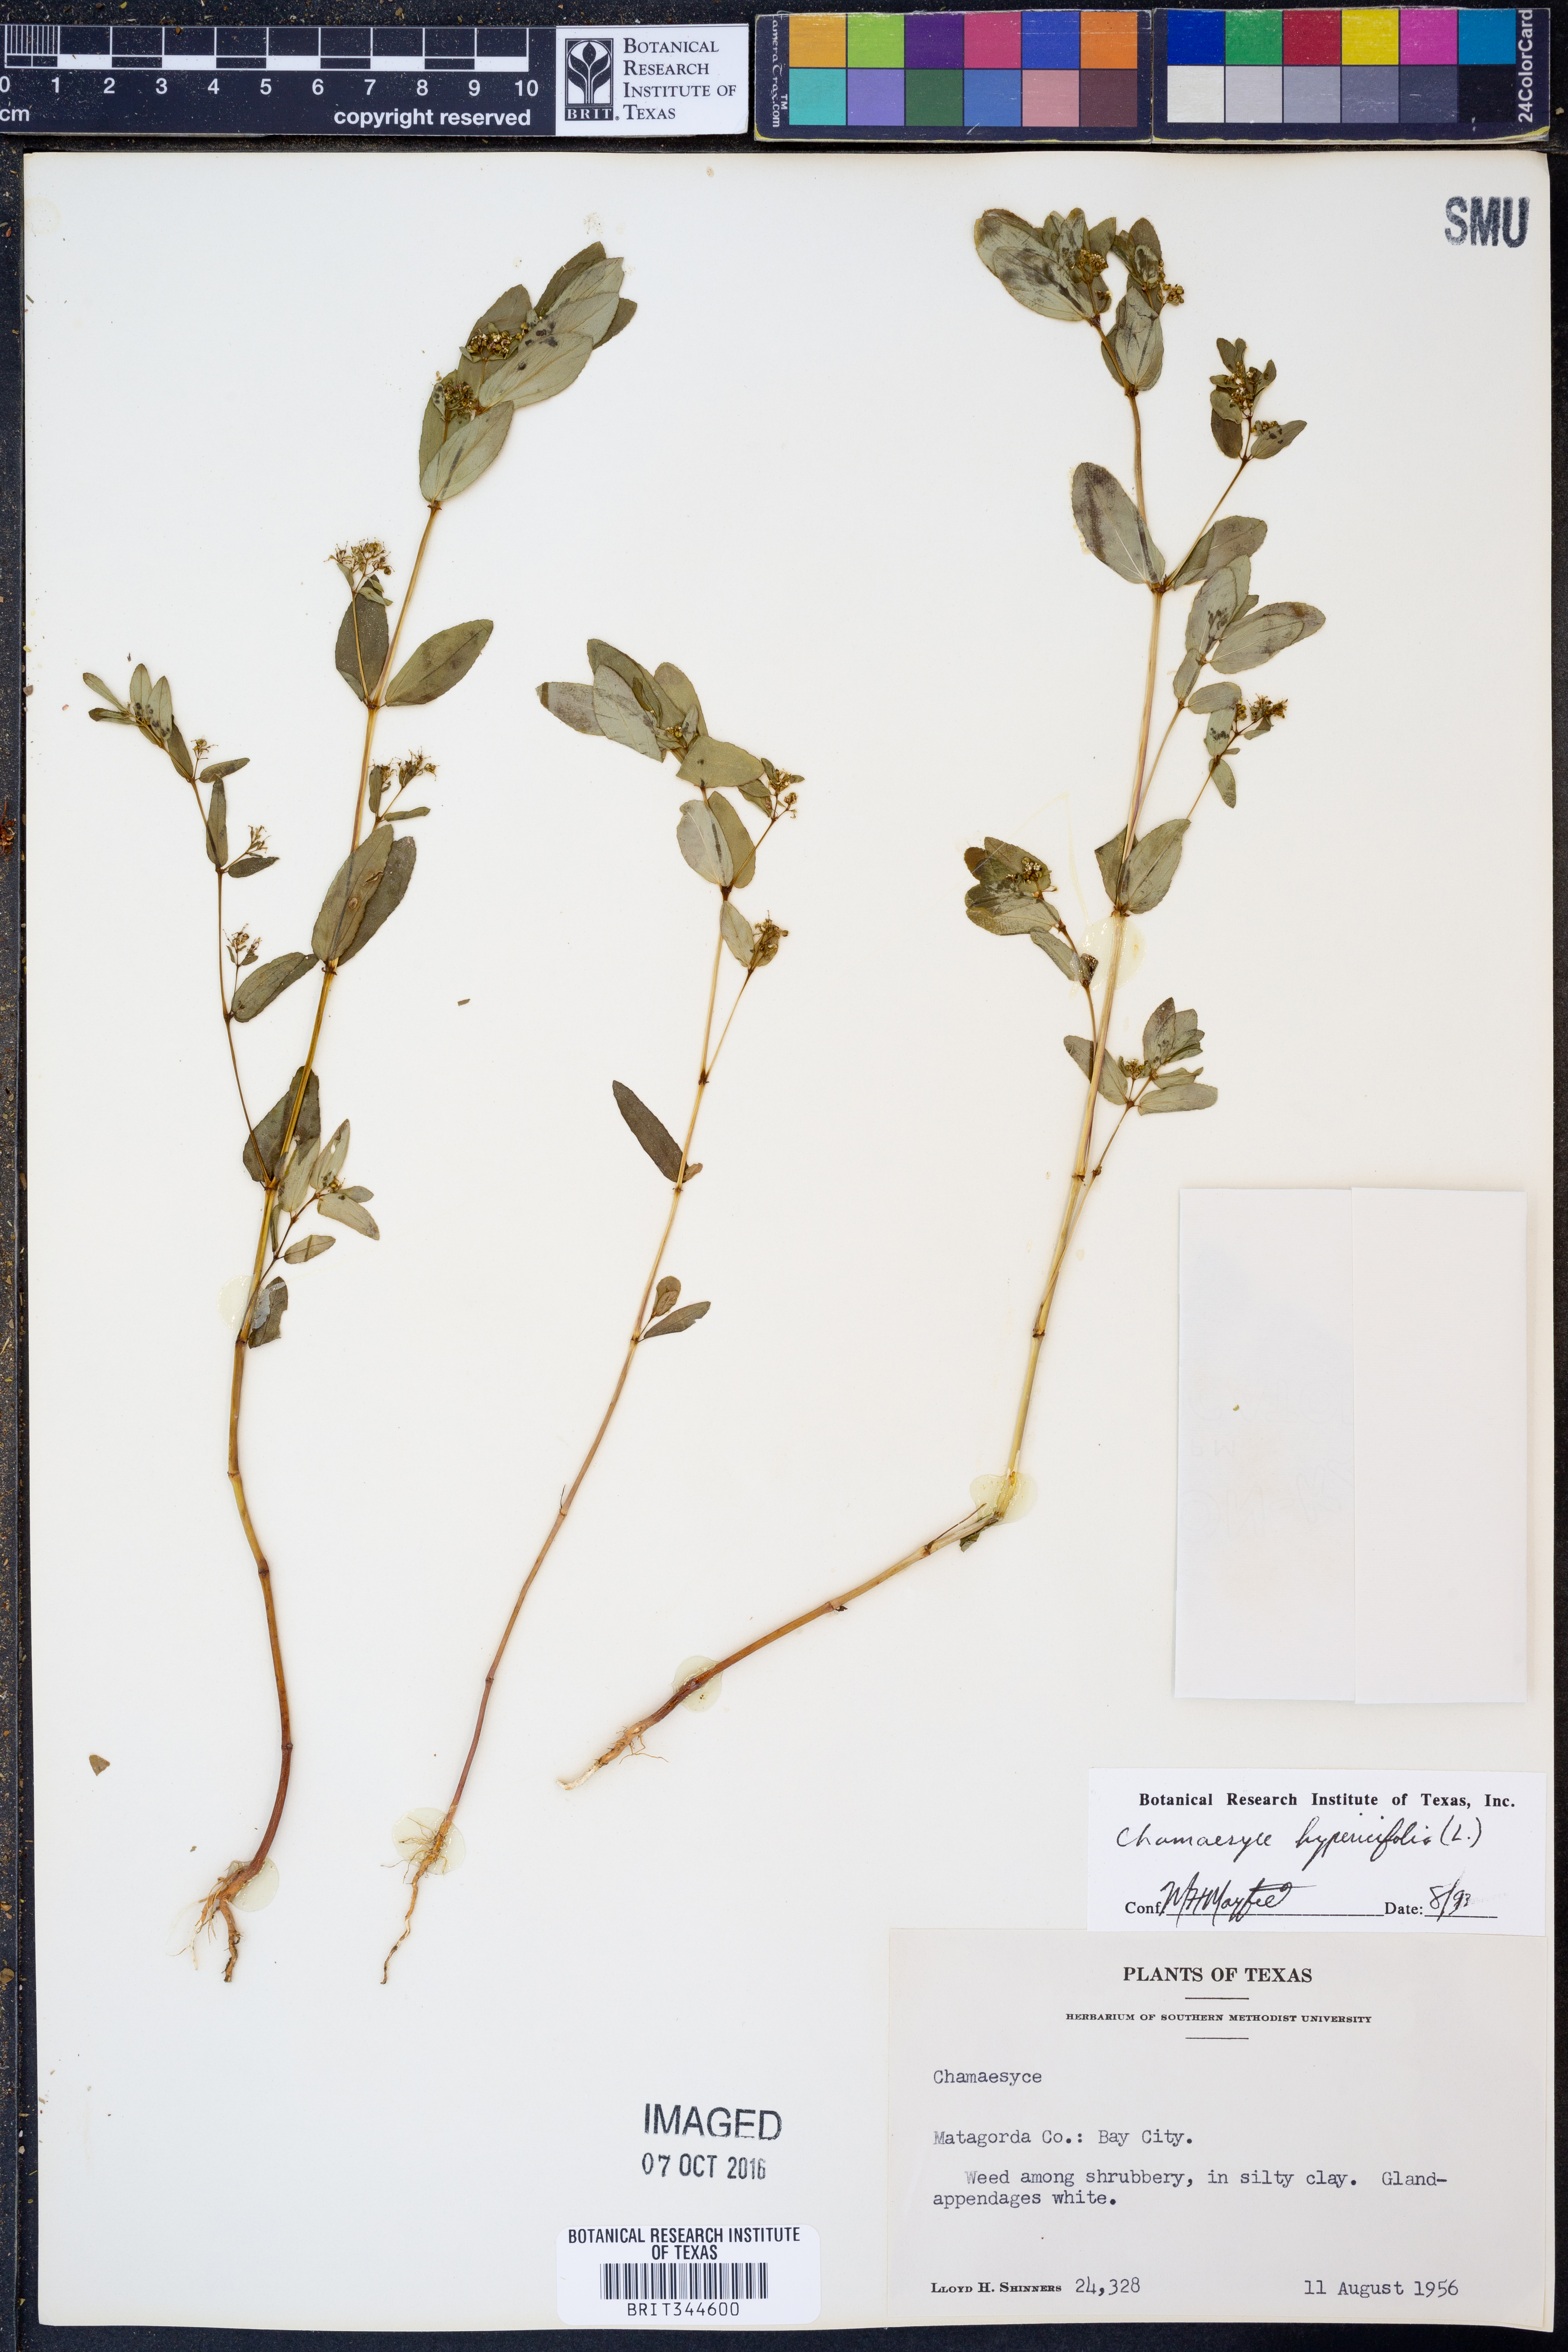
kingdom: Plantae
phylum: Tracheophyta
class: Magnoliopsida
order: Malpighiales
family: Euphorbiaceae
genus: Euphorbia
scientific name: Euphorbia hypericifolia
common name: Graceful sandmat
